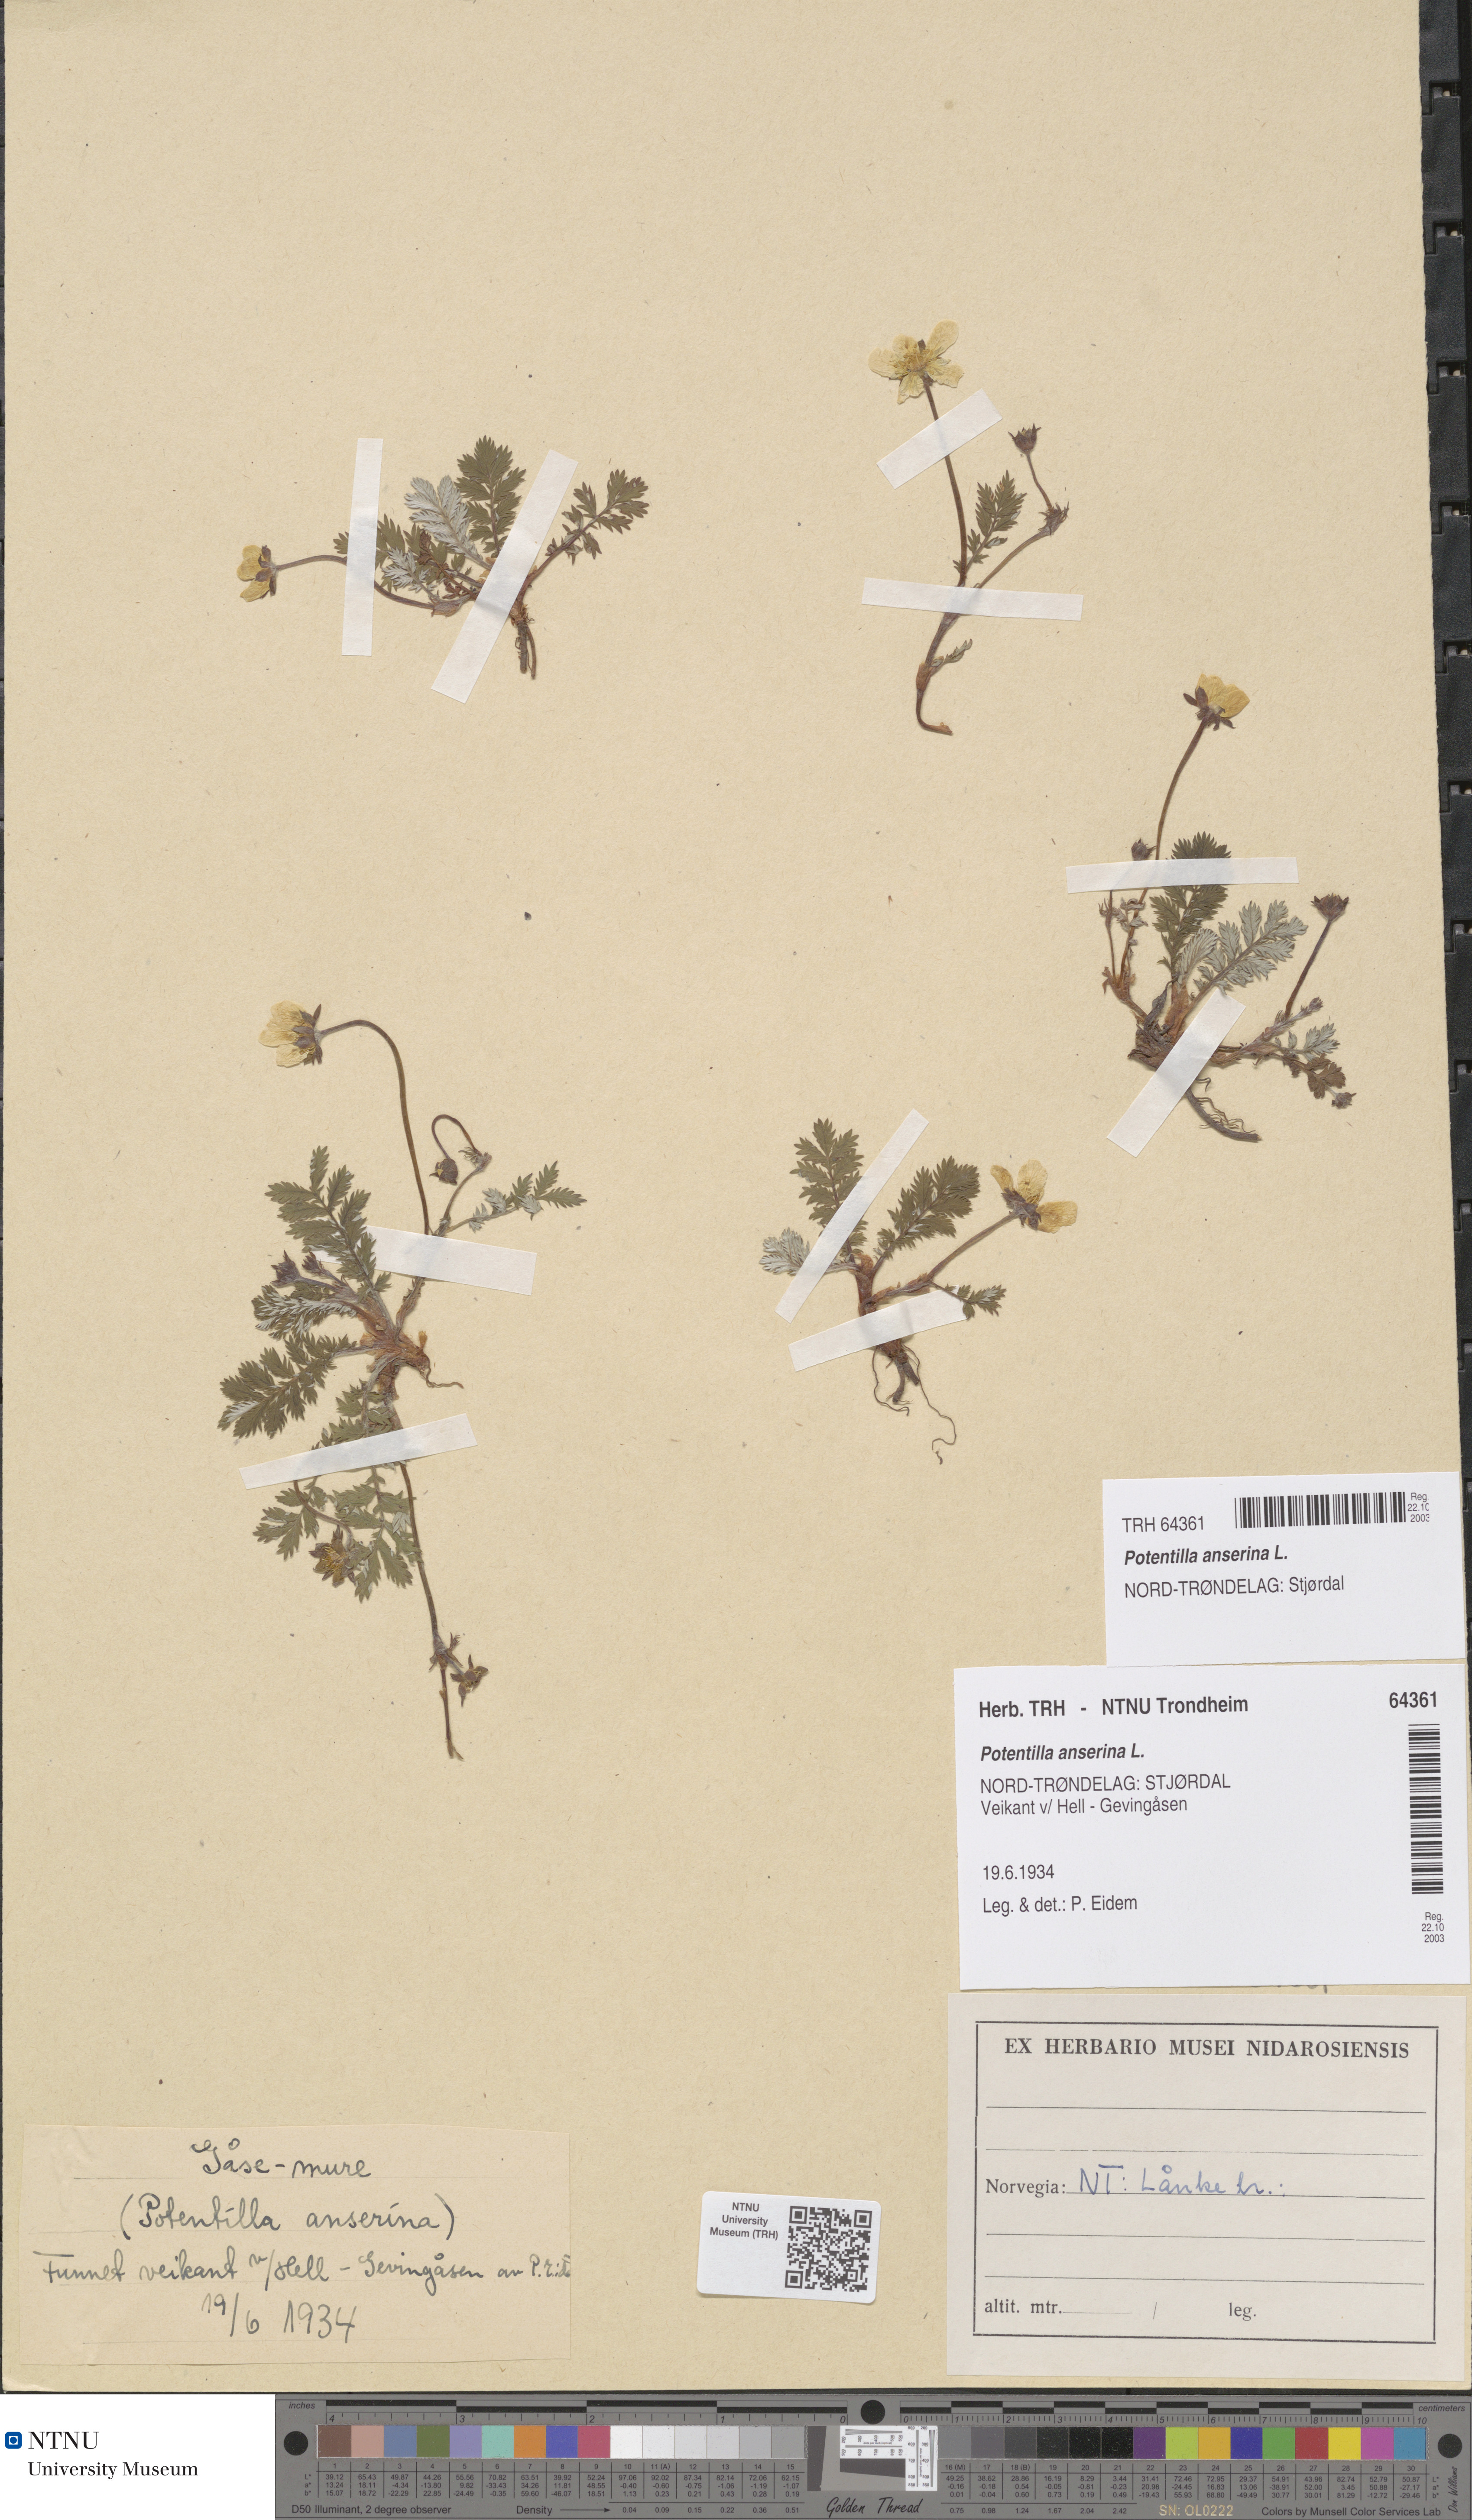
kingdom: Plantae
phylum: Tracheophyta
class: Magnoliopsida
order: Rosales
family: Rosaceae
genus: Argentina
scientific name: Argentina anserina
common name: Common silverweed
